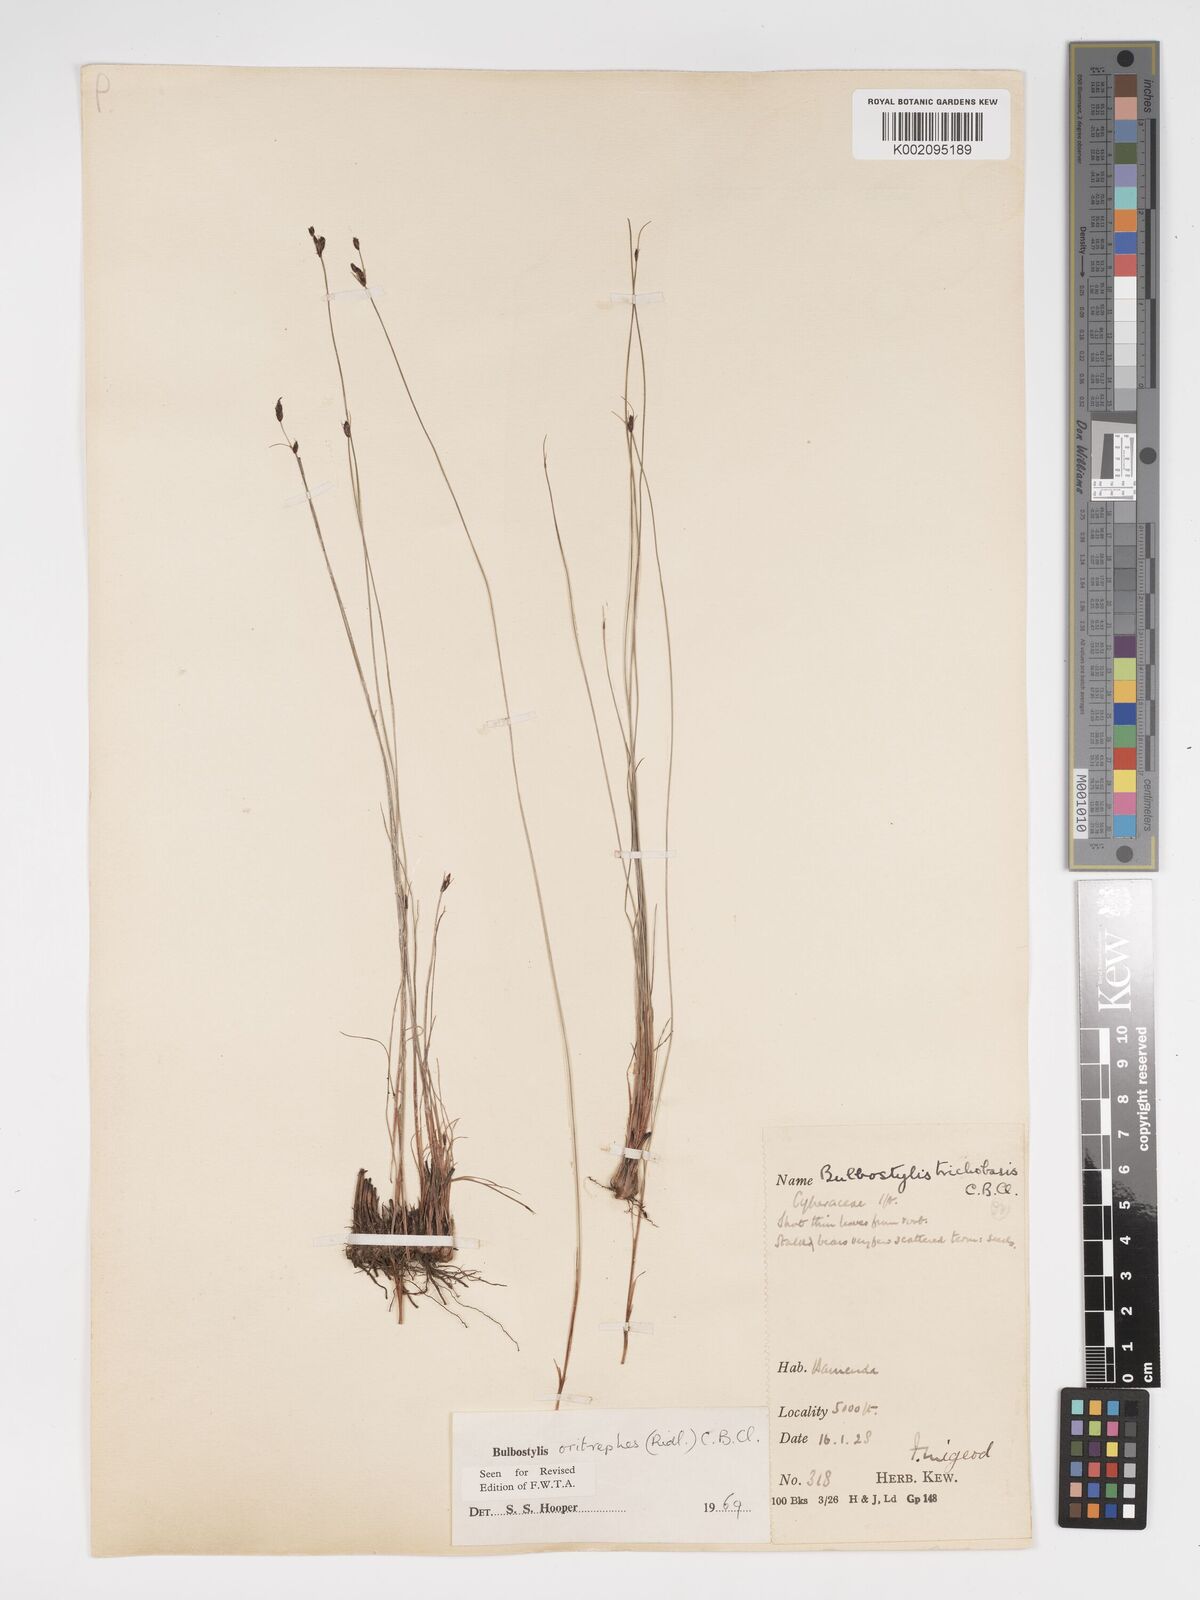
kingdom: Plantae
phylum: Tracheophyta
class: Liliopsida
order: Poales
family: Cyperaceae
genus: Bulbostylis
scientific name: Bulbostylis oritrephes
